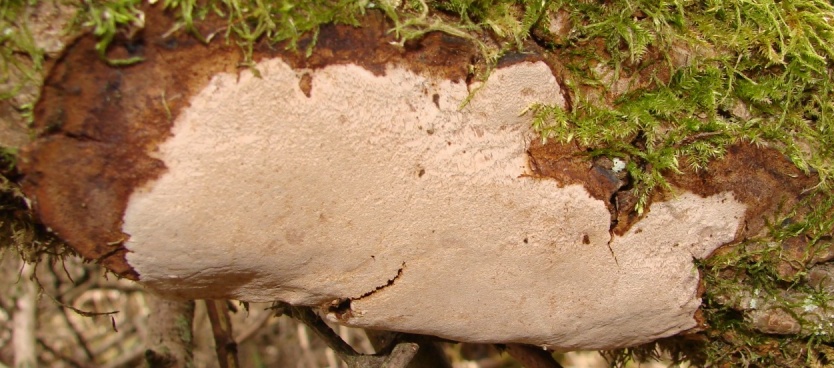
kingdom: Fungi
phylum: Basidiomycota
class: Agaricomycetes
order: Hymenochaetales
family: Hymenochaetaceae
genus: Fomitiporia
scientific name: Fomitiporia punctata
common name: pude-ildporesvamp
